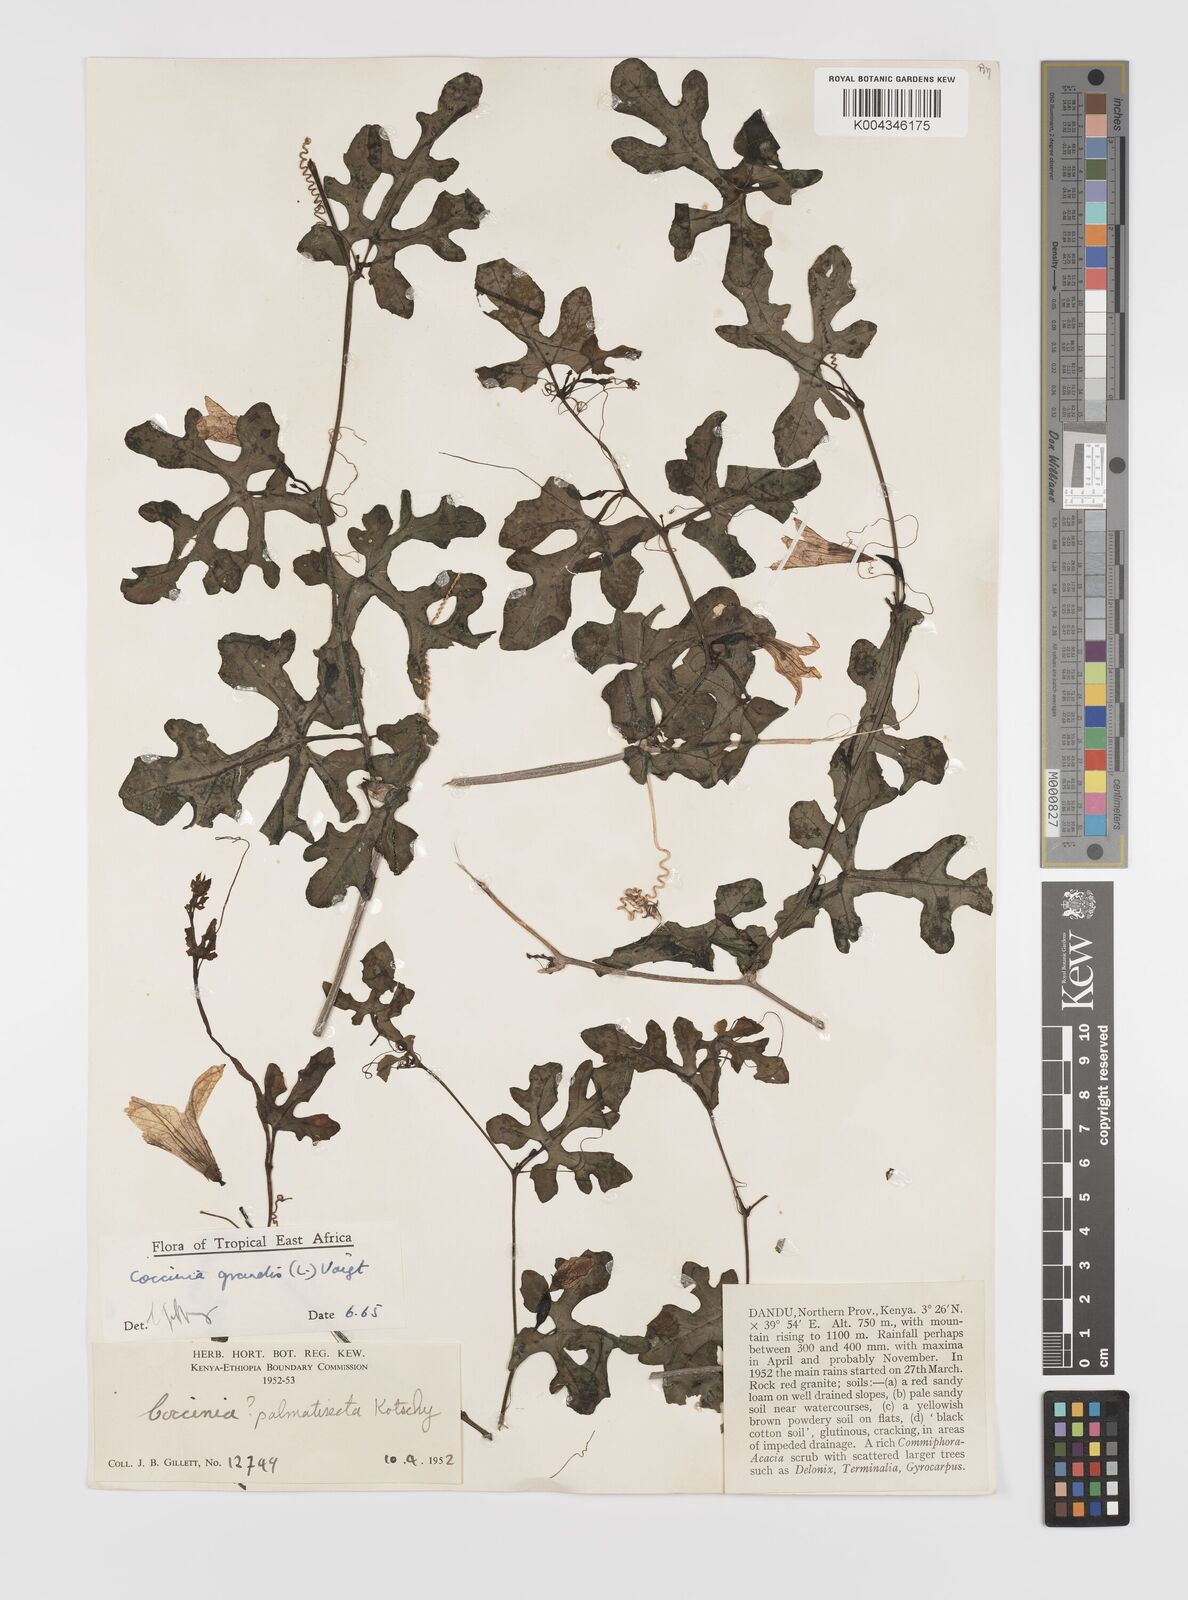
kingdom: Plantae
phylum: Tracheophyta
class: Magnoliopsida
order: Cucurbitales
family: Cucurbitaceae
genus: Coccinia
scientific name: Coccinia grandis
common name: Ivy gourd
